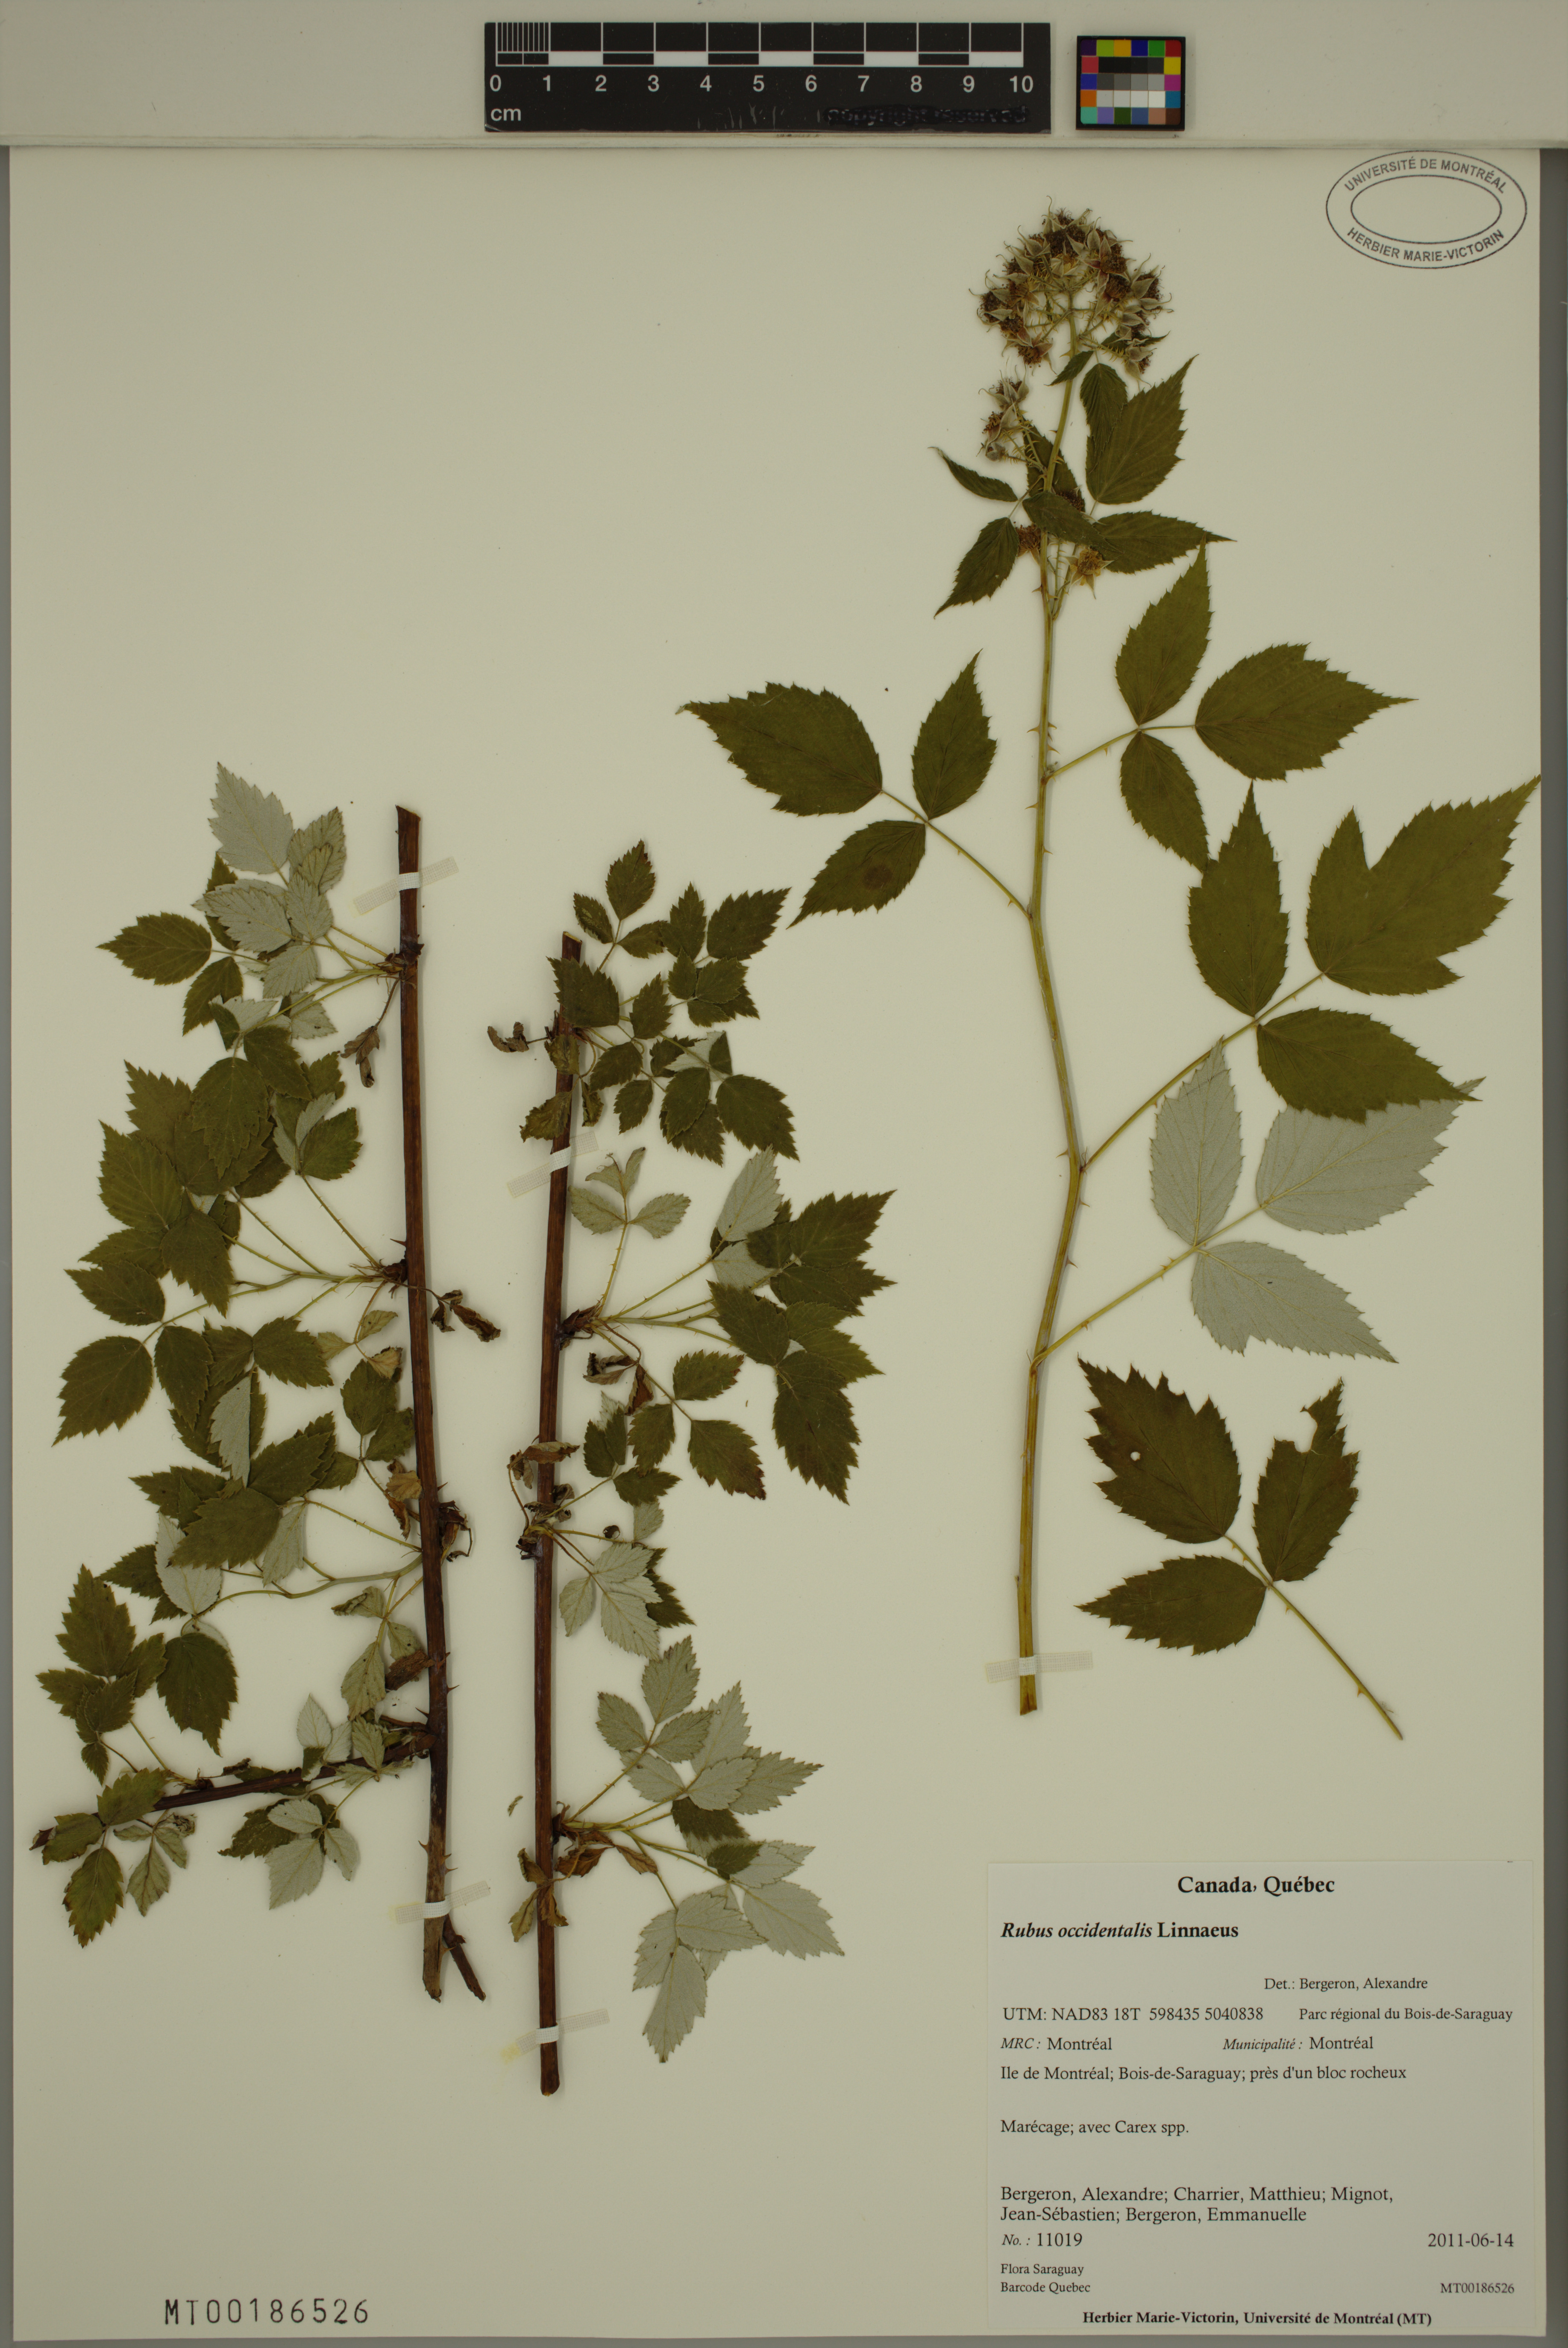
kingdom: Plantae
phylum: Tracheophyta
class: Magnoliopsida
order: Rosales
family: Rosaceae
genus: Rubus
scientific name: Rubus occidentalis
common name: Black raspberry
